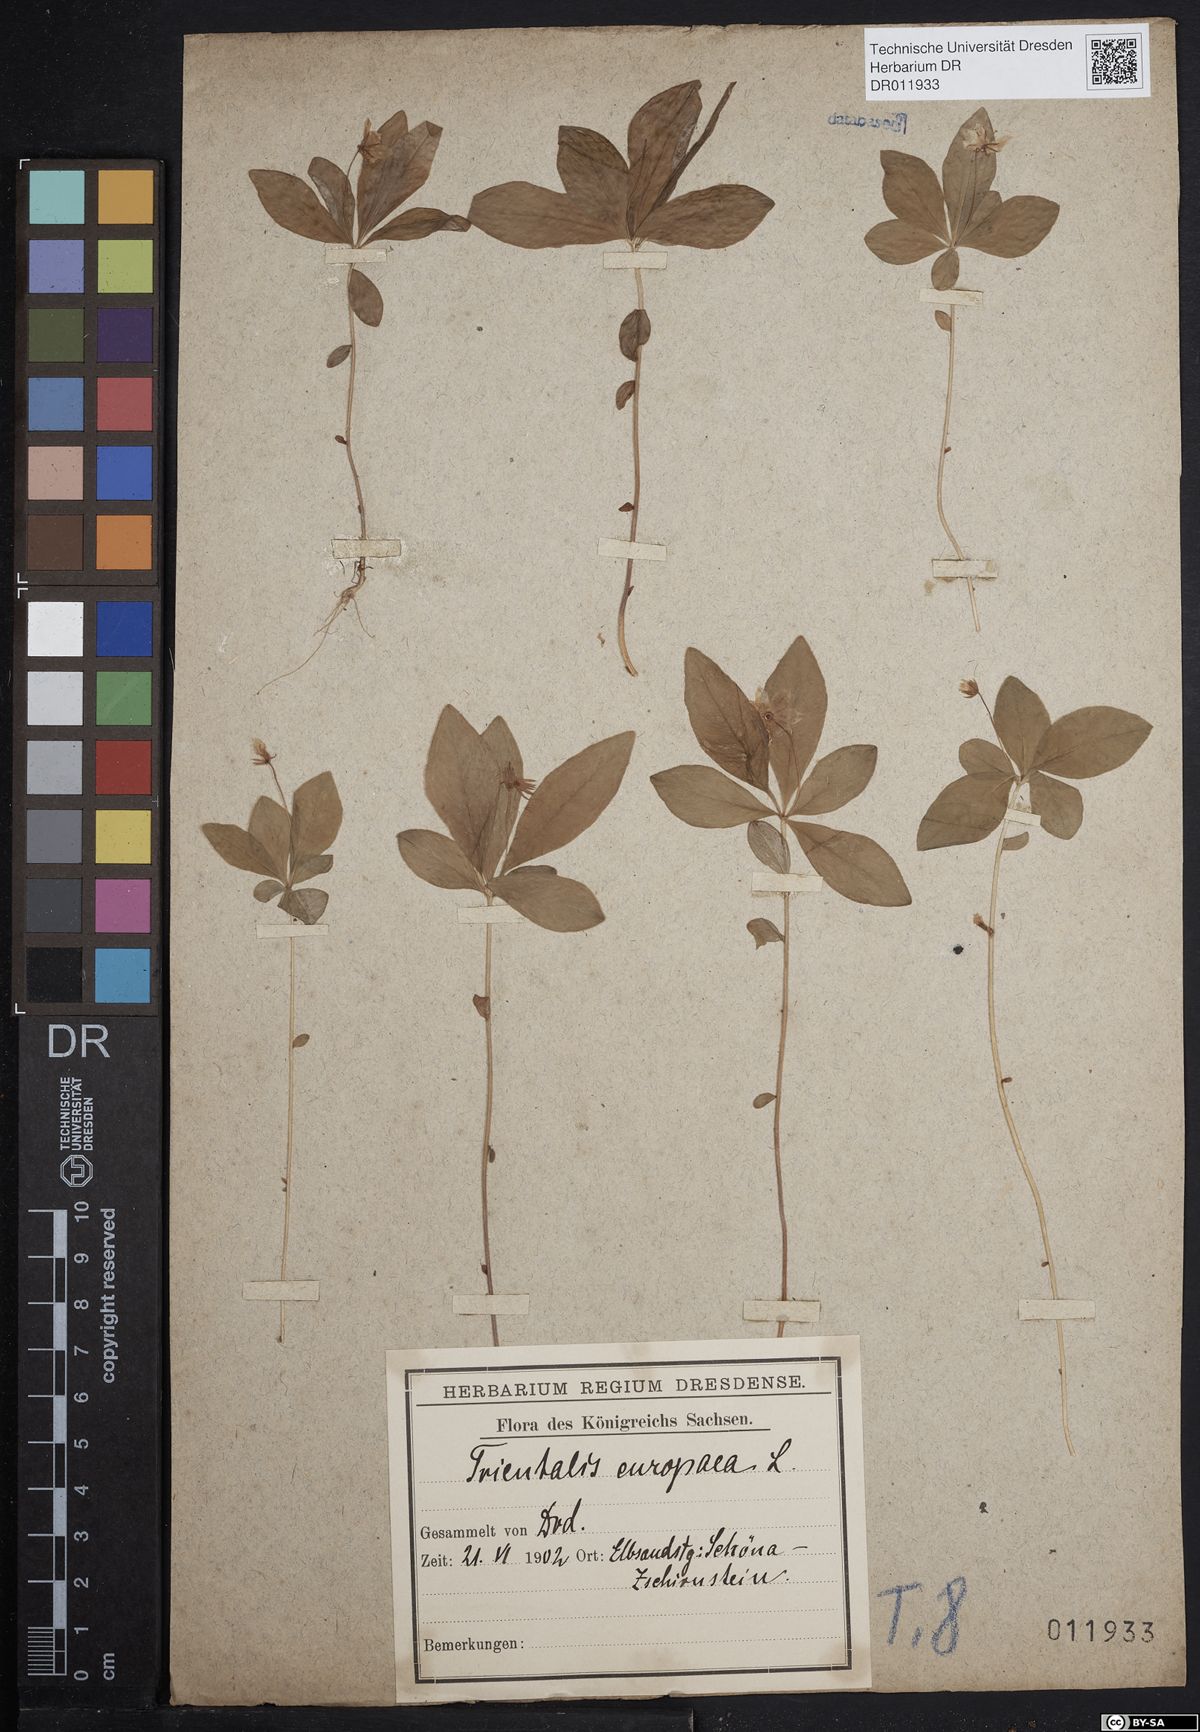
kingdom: Plantae
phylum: Tracheophyta
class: Magnoliopsida
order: Ericales
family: Primulaceae
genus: Lysimachia
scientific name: Lysimachia europaea
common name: Arctic starflower
